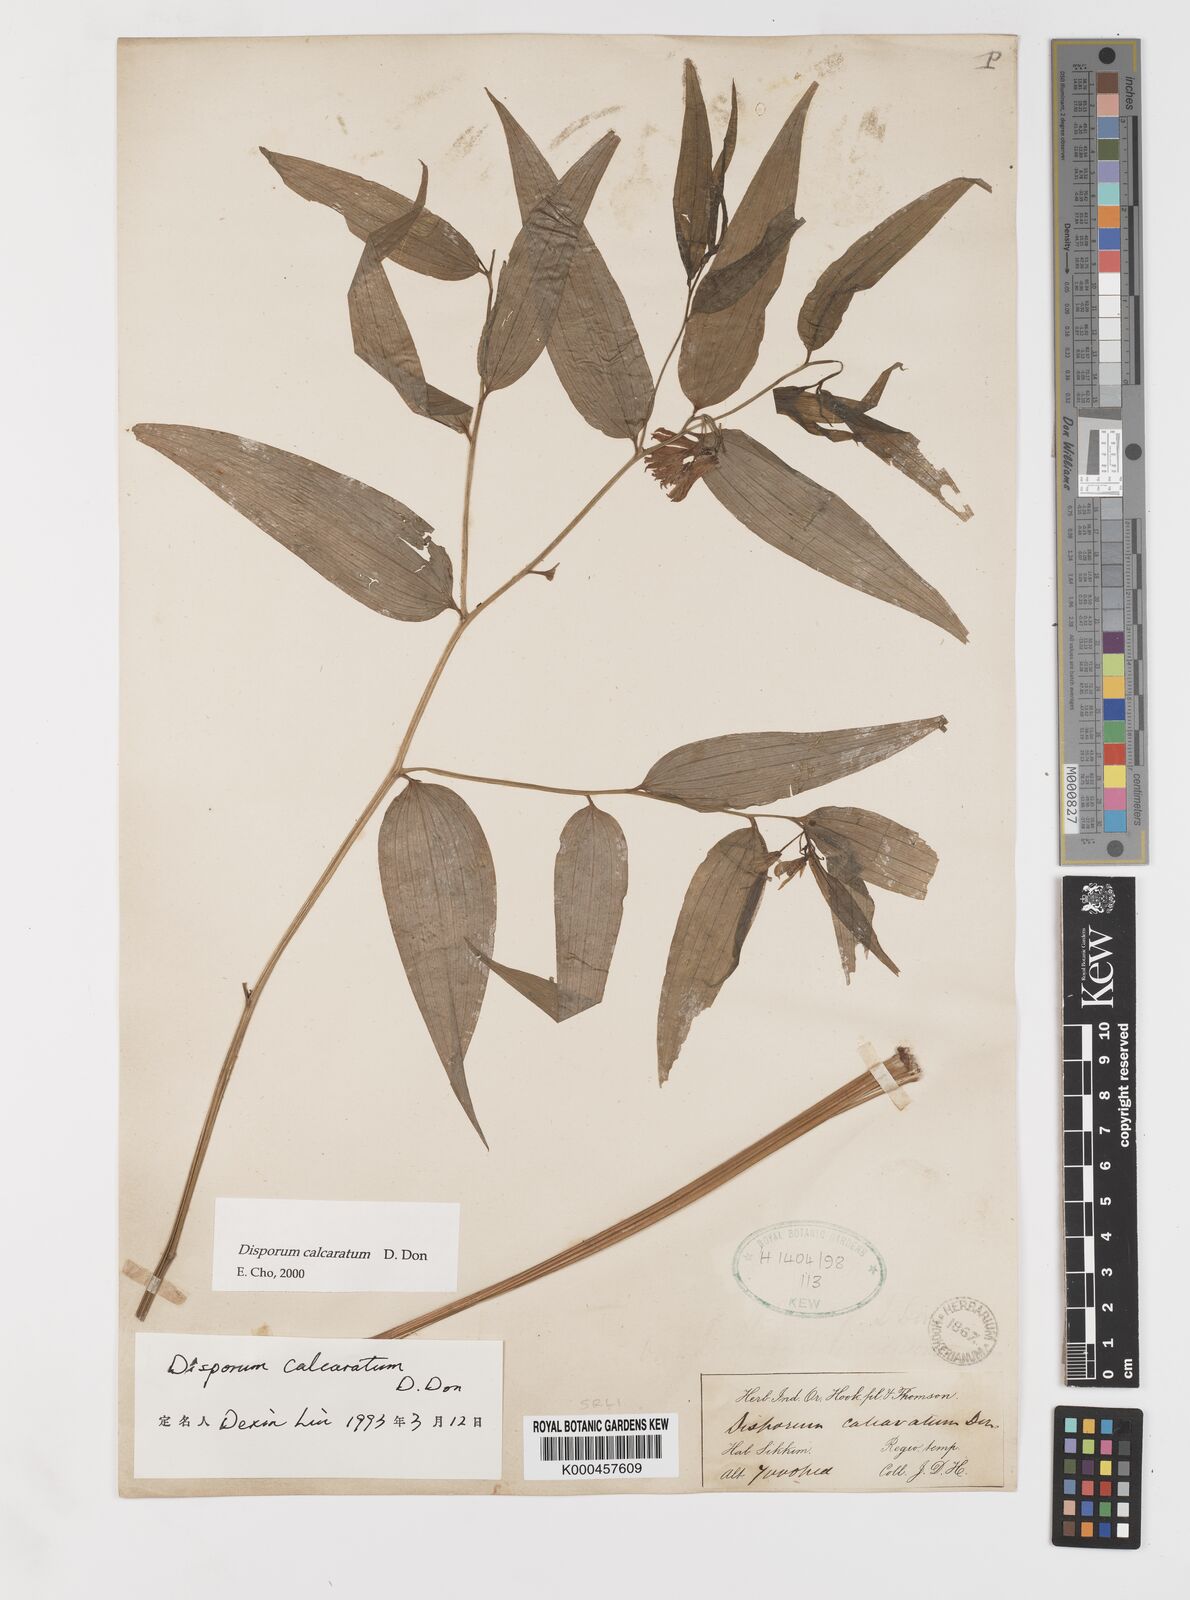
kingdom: Plantae
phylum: Tracheophyta
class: Liliopsida
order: Liliales
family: Colchicaceae
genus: Disporum
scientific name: Disporum calcaratum
